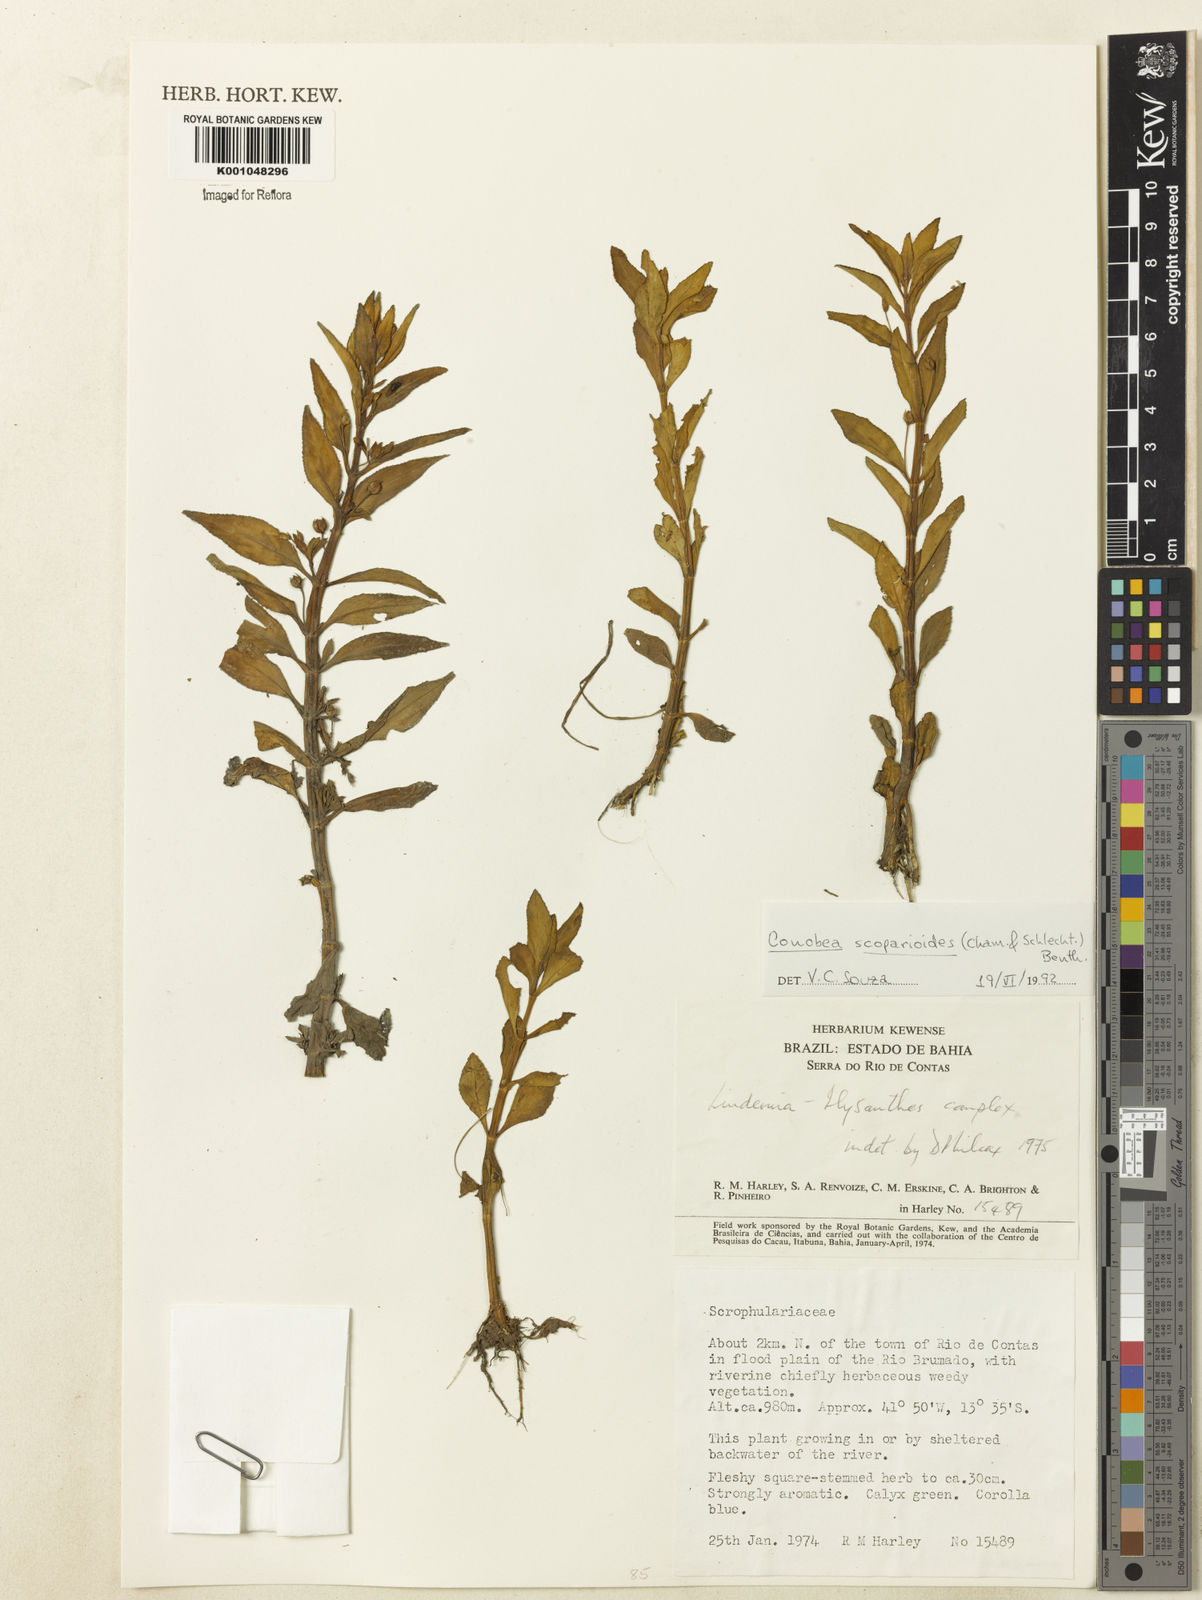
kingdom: Plantae
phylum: Tracheophyta
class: Magnoliopsida
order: Lamiales
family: Plantaginaceae
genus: Conobea
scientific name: Conobea scoparioides
